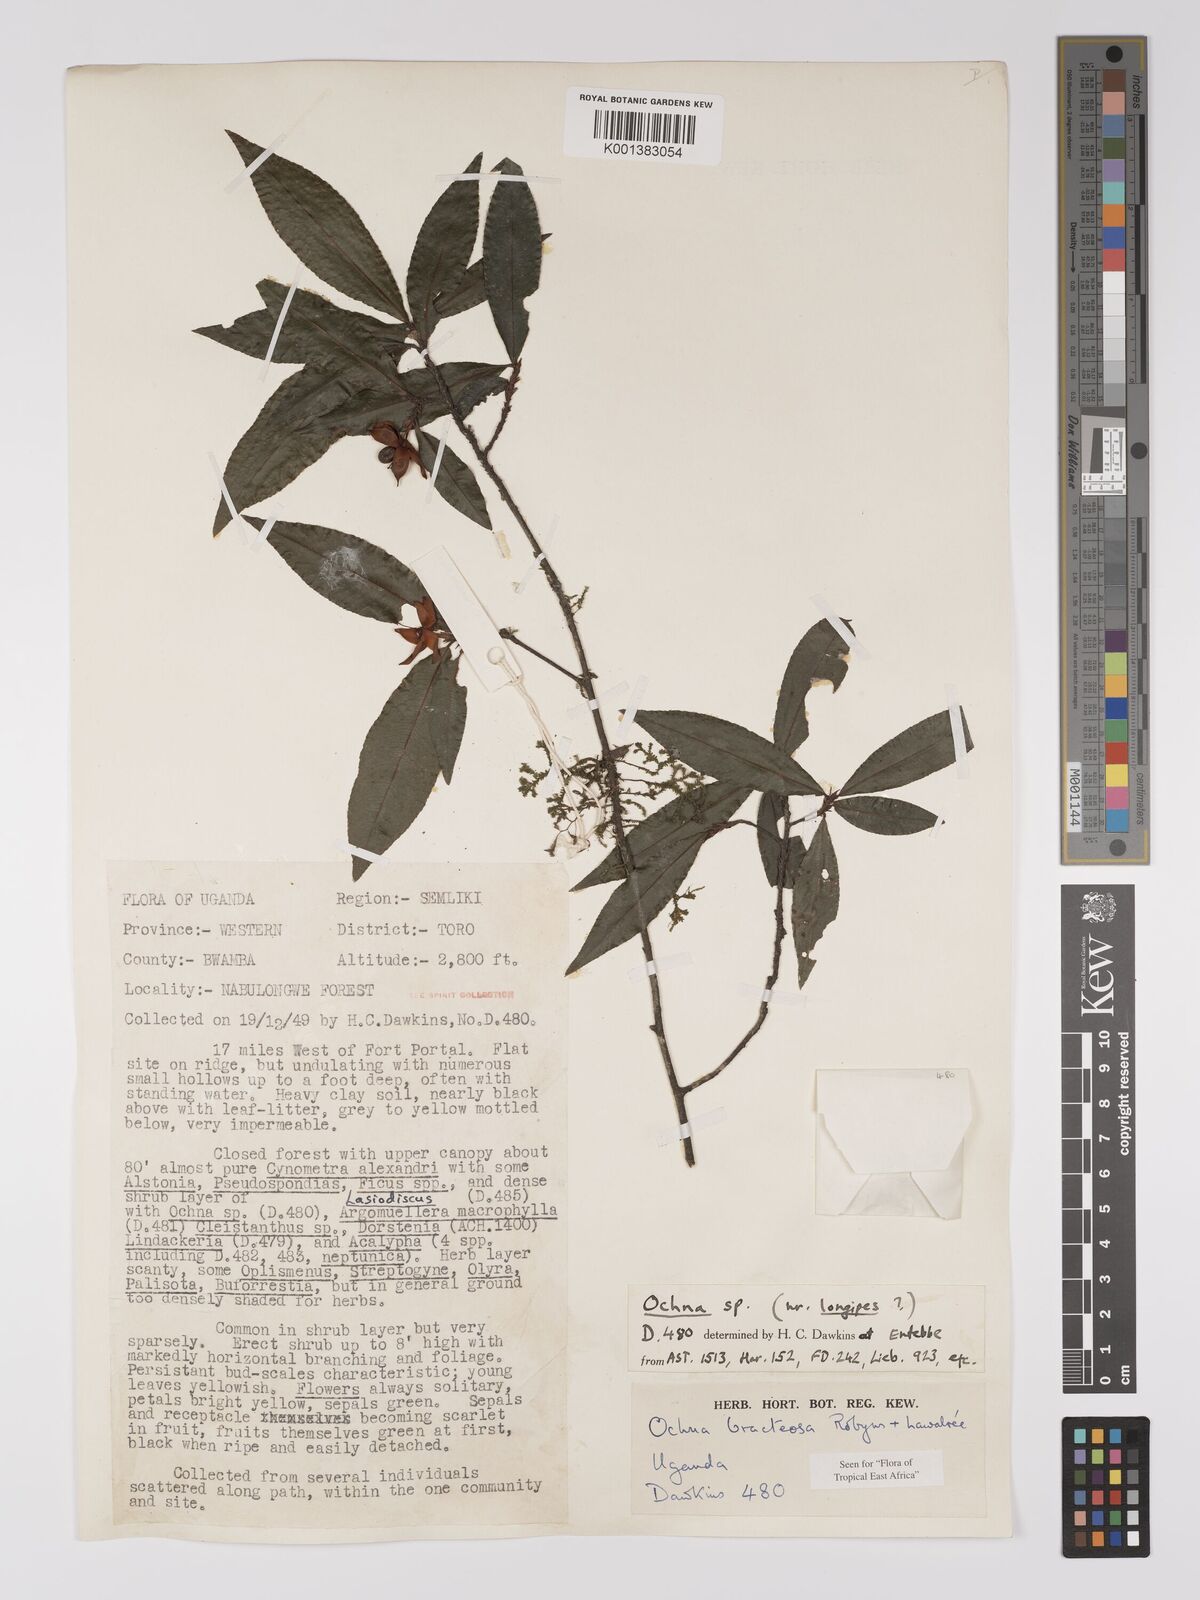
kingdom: Plantae
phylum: Tracheophyta
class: Magnoliopsida
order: Malpighiales
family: Ochnaceae
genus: Ochna
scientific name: Ochna bracteosa
